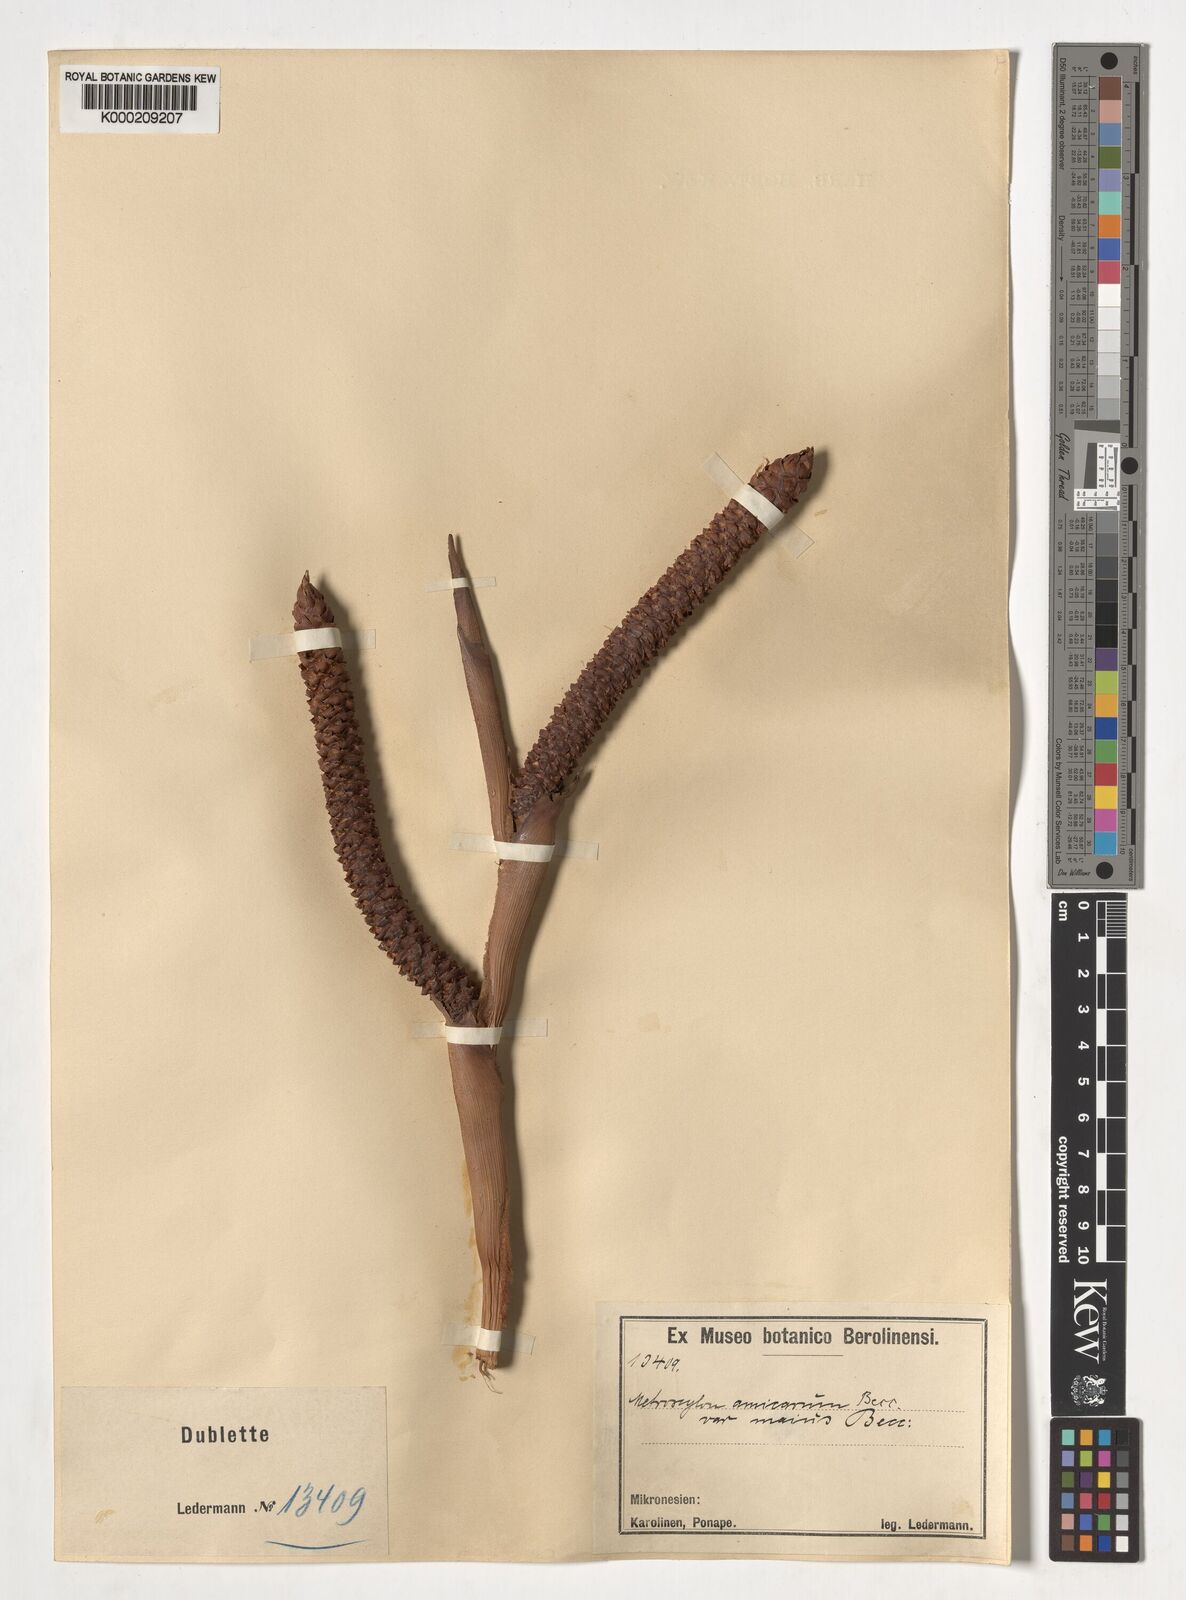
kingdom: Plantae
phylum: Tracheophyta
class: Liliopsida
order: Arecales
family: Arecaceae
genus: Metroxylon
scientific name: Metroxylon amicarum
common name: Caroline ivory nut
